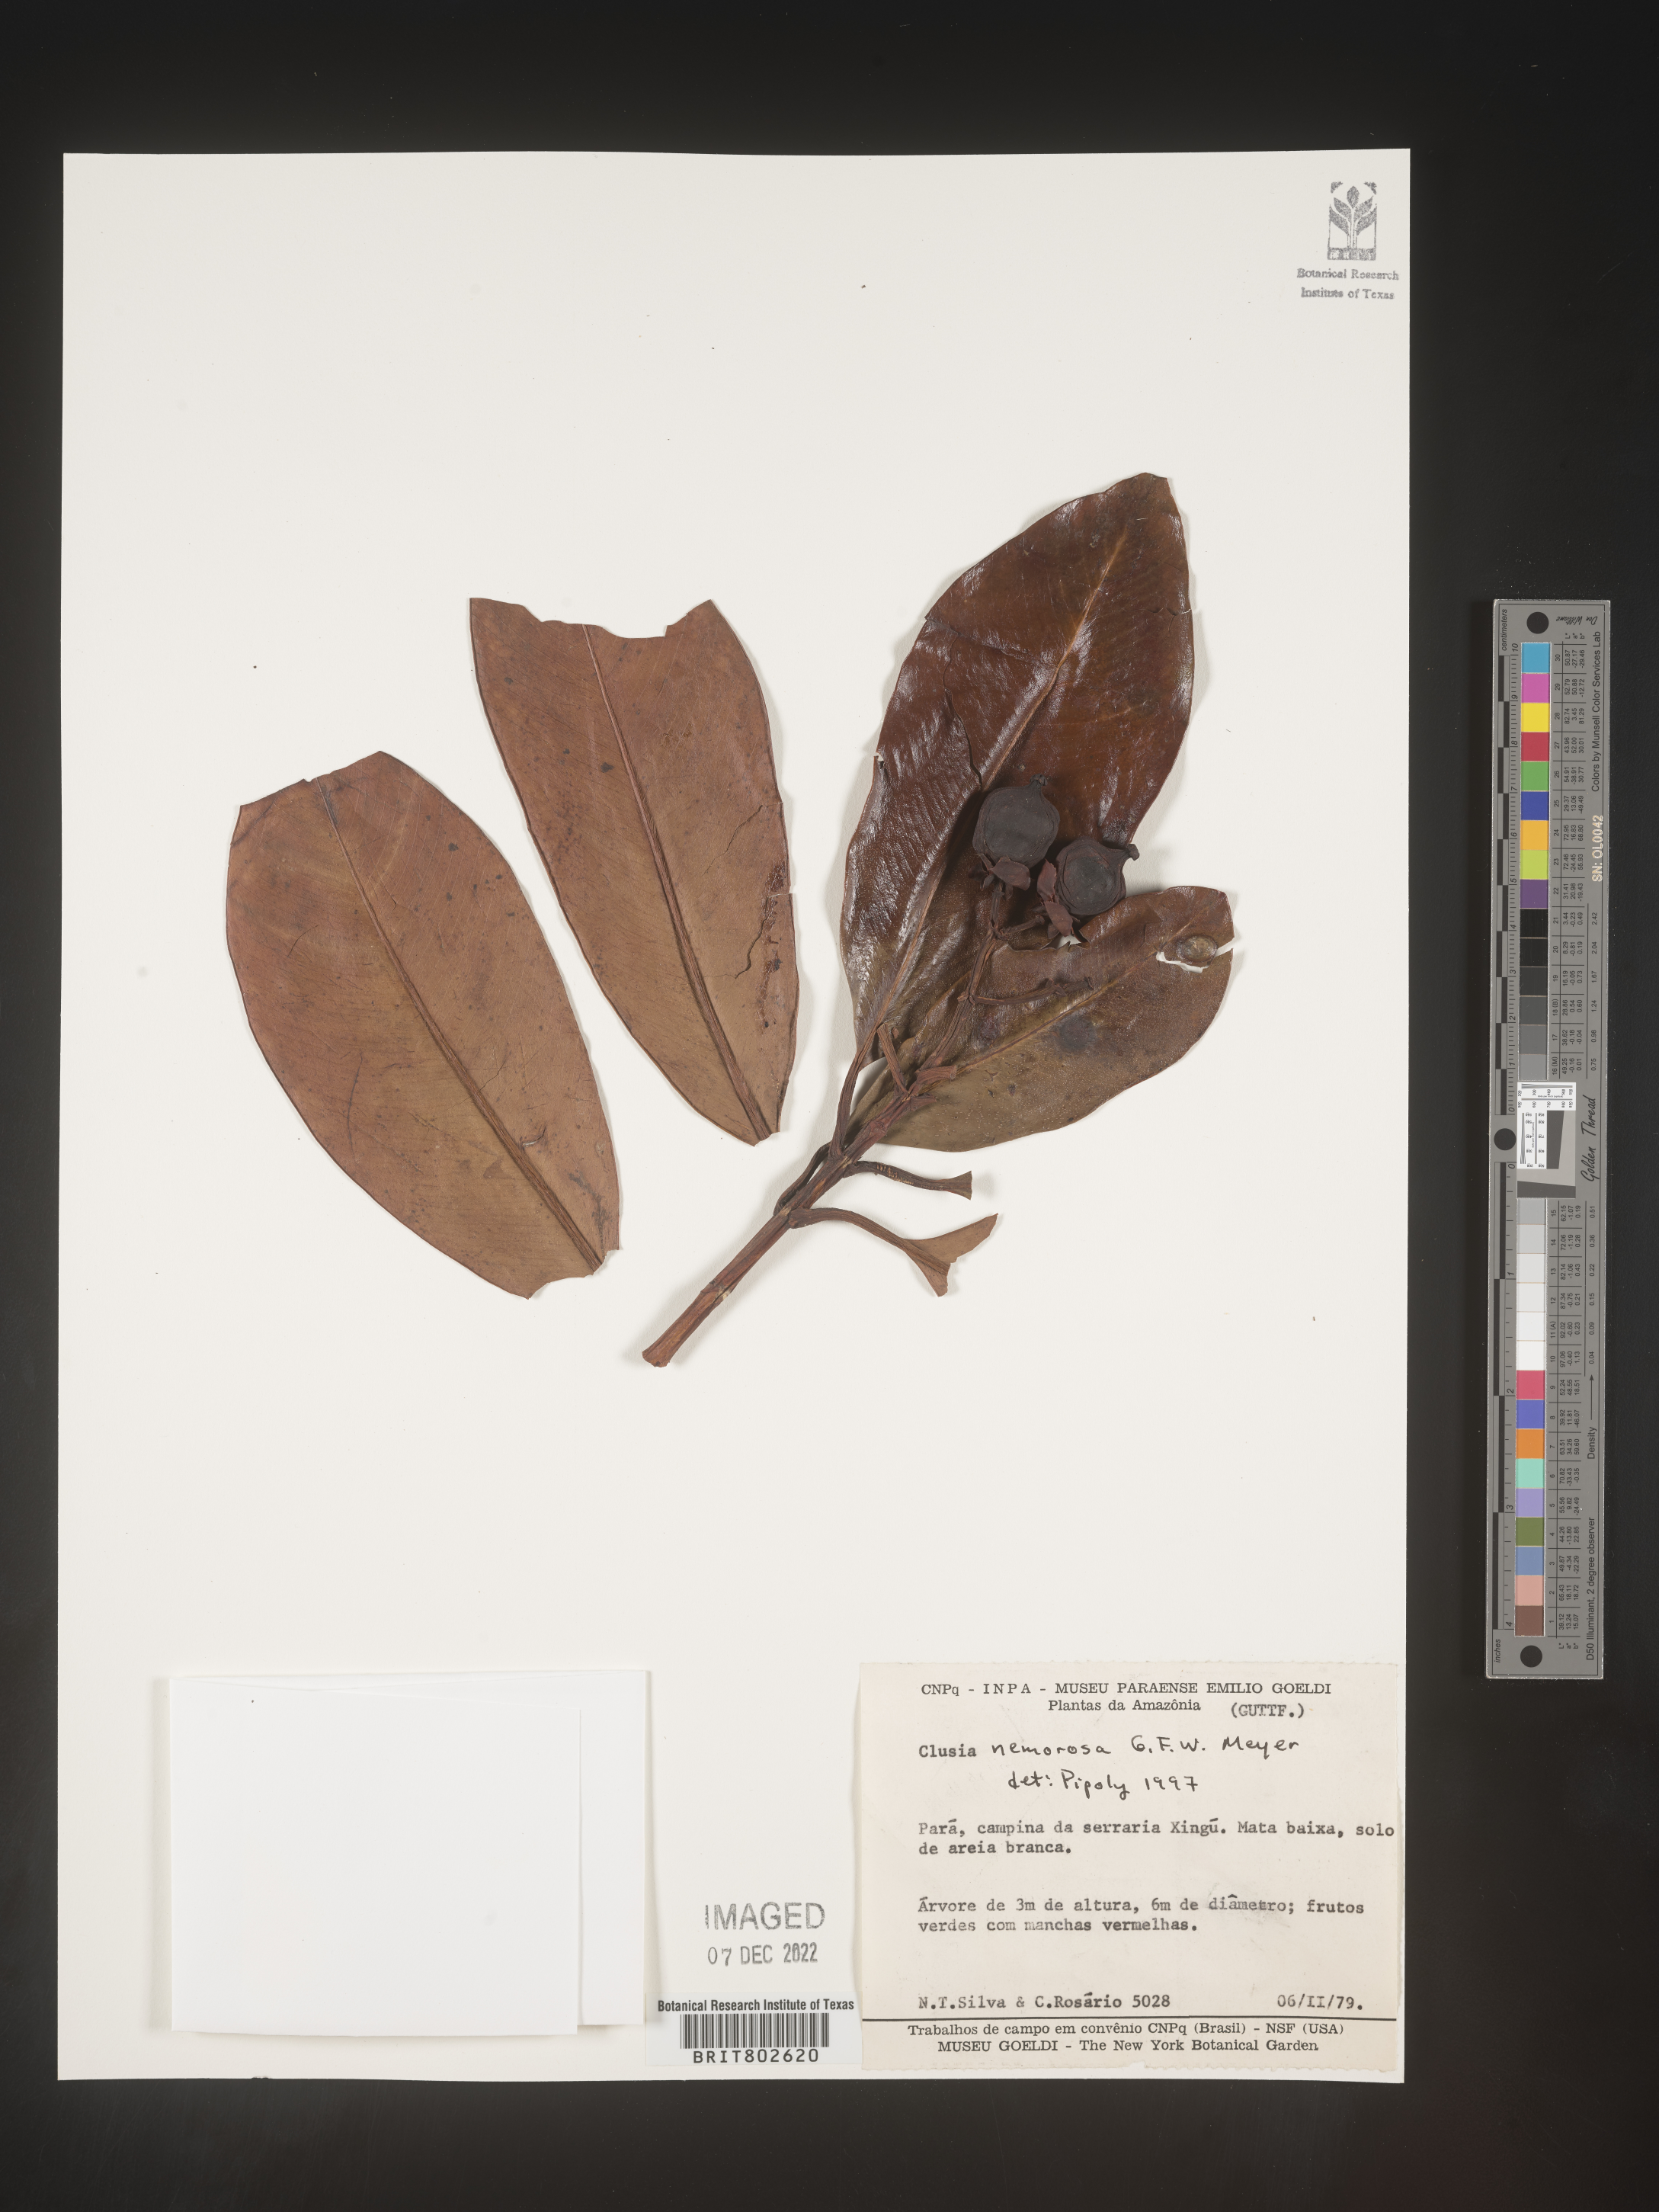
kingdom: Plantae
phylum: Tracheophyta
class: Magnoliopsida
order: Malpighiales
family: Clusiaceae
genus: Clusia
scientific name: Clusia nemorosa
